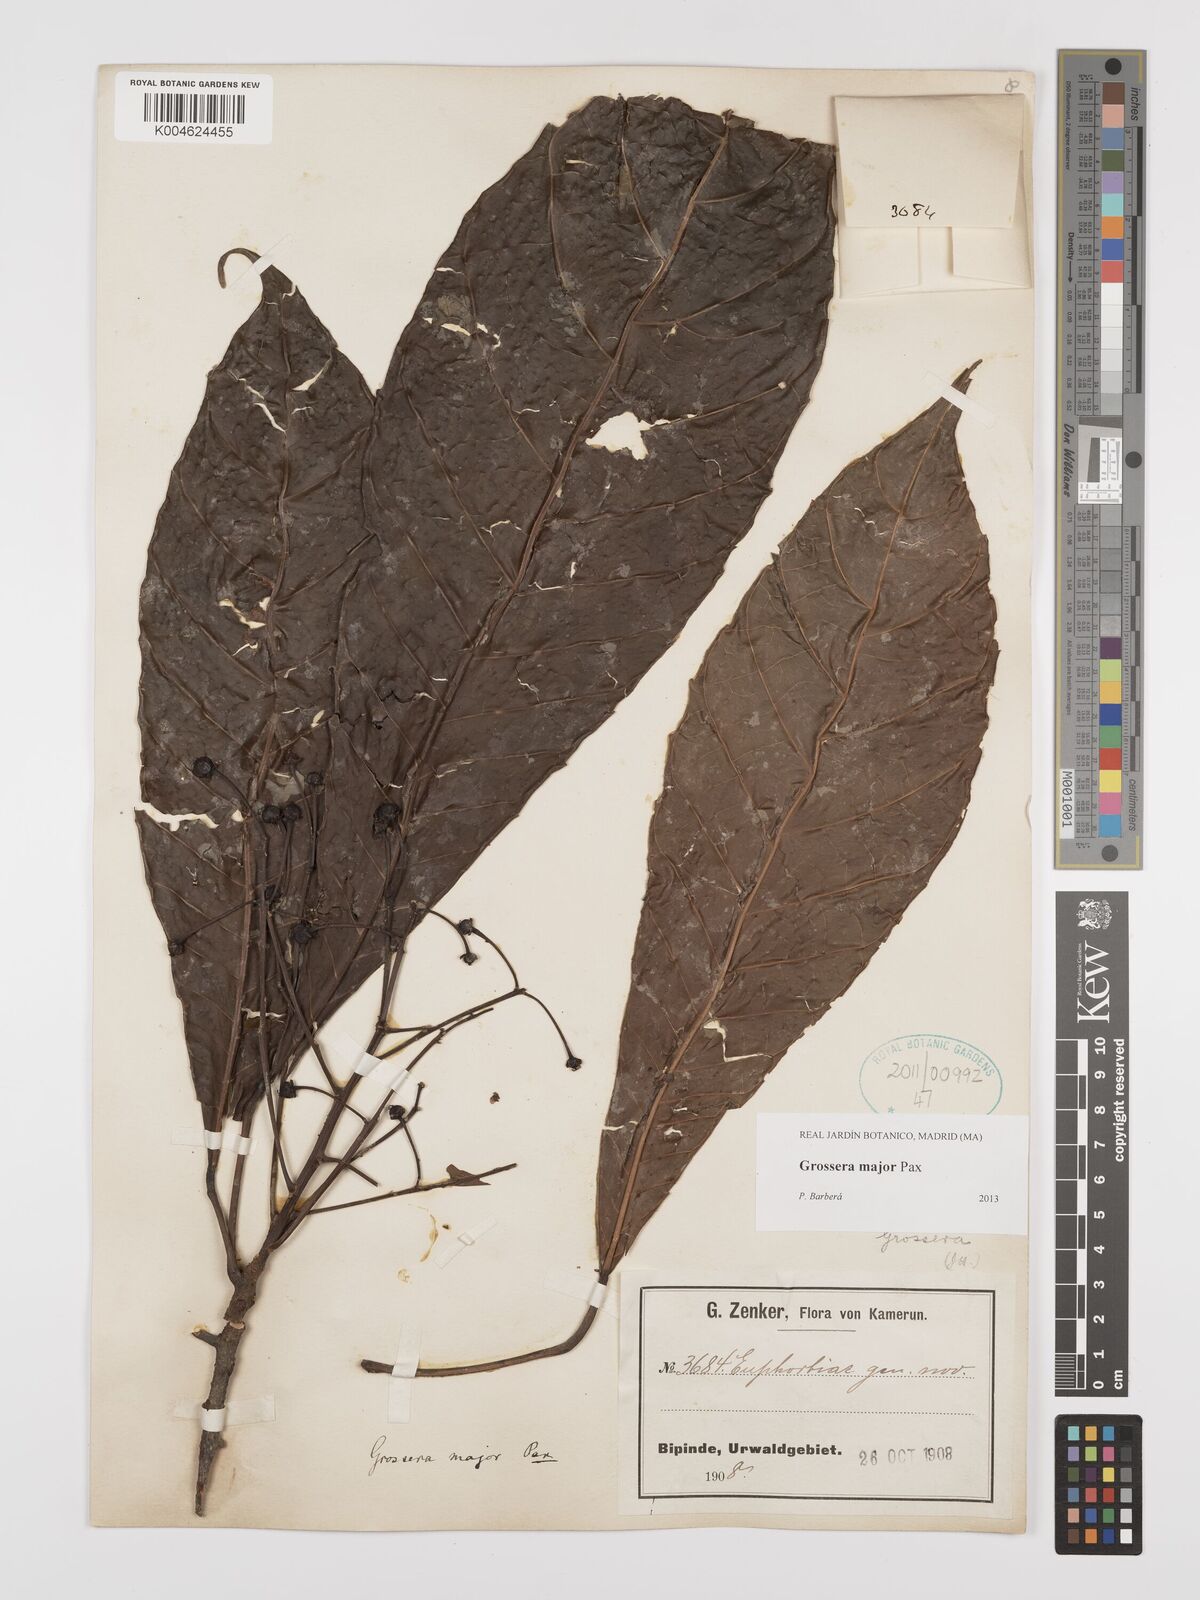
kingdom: Plantae
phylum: Tracheophyta
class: Magnoliopsida
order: Malpighiales
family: Euphorbiaceae
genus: Grossera
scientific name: Grossera major
